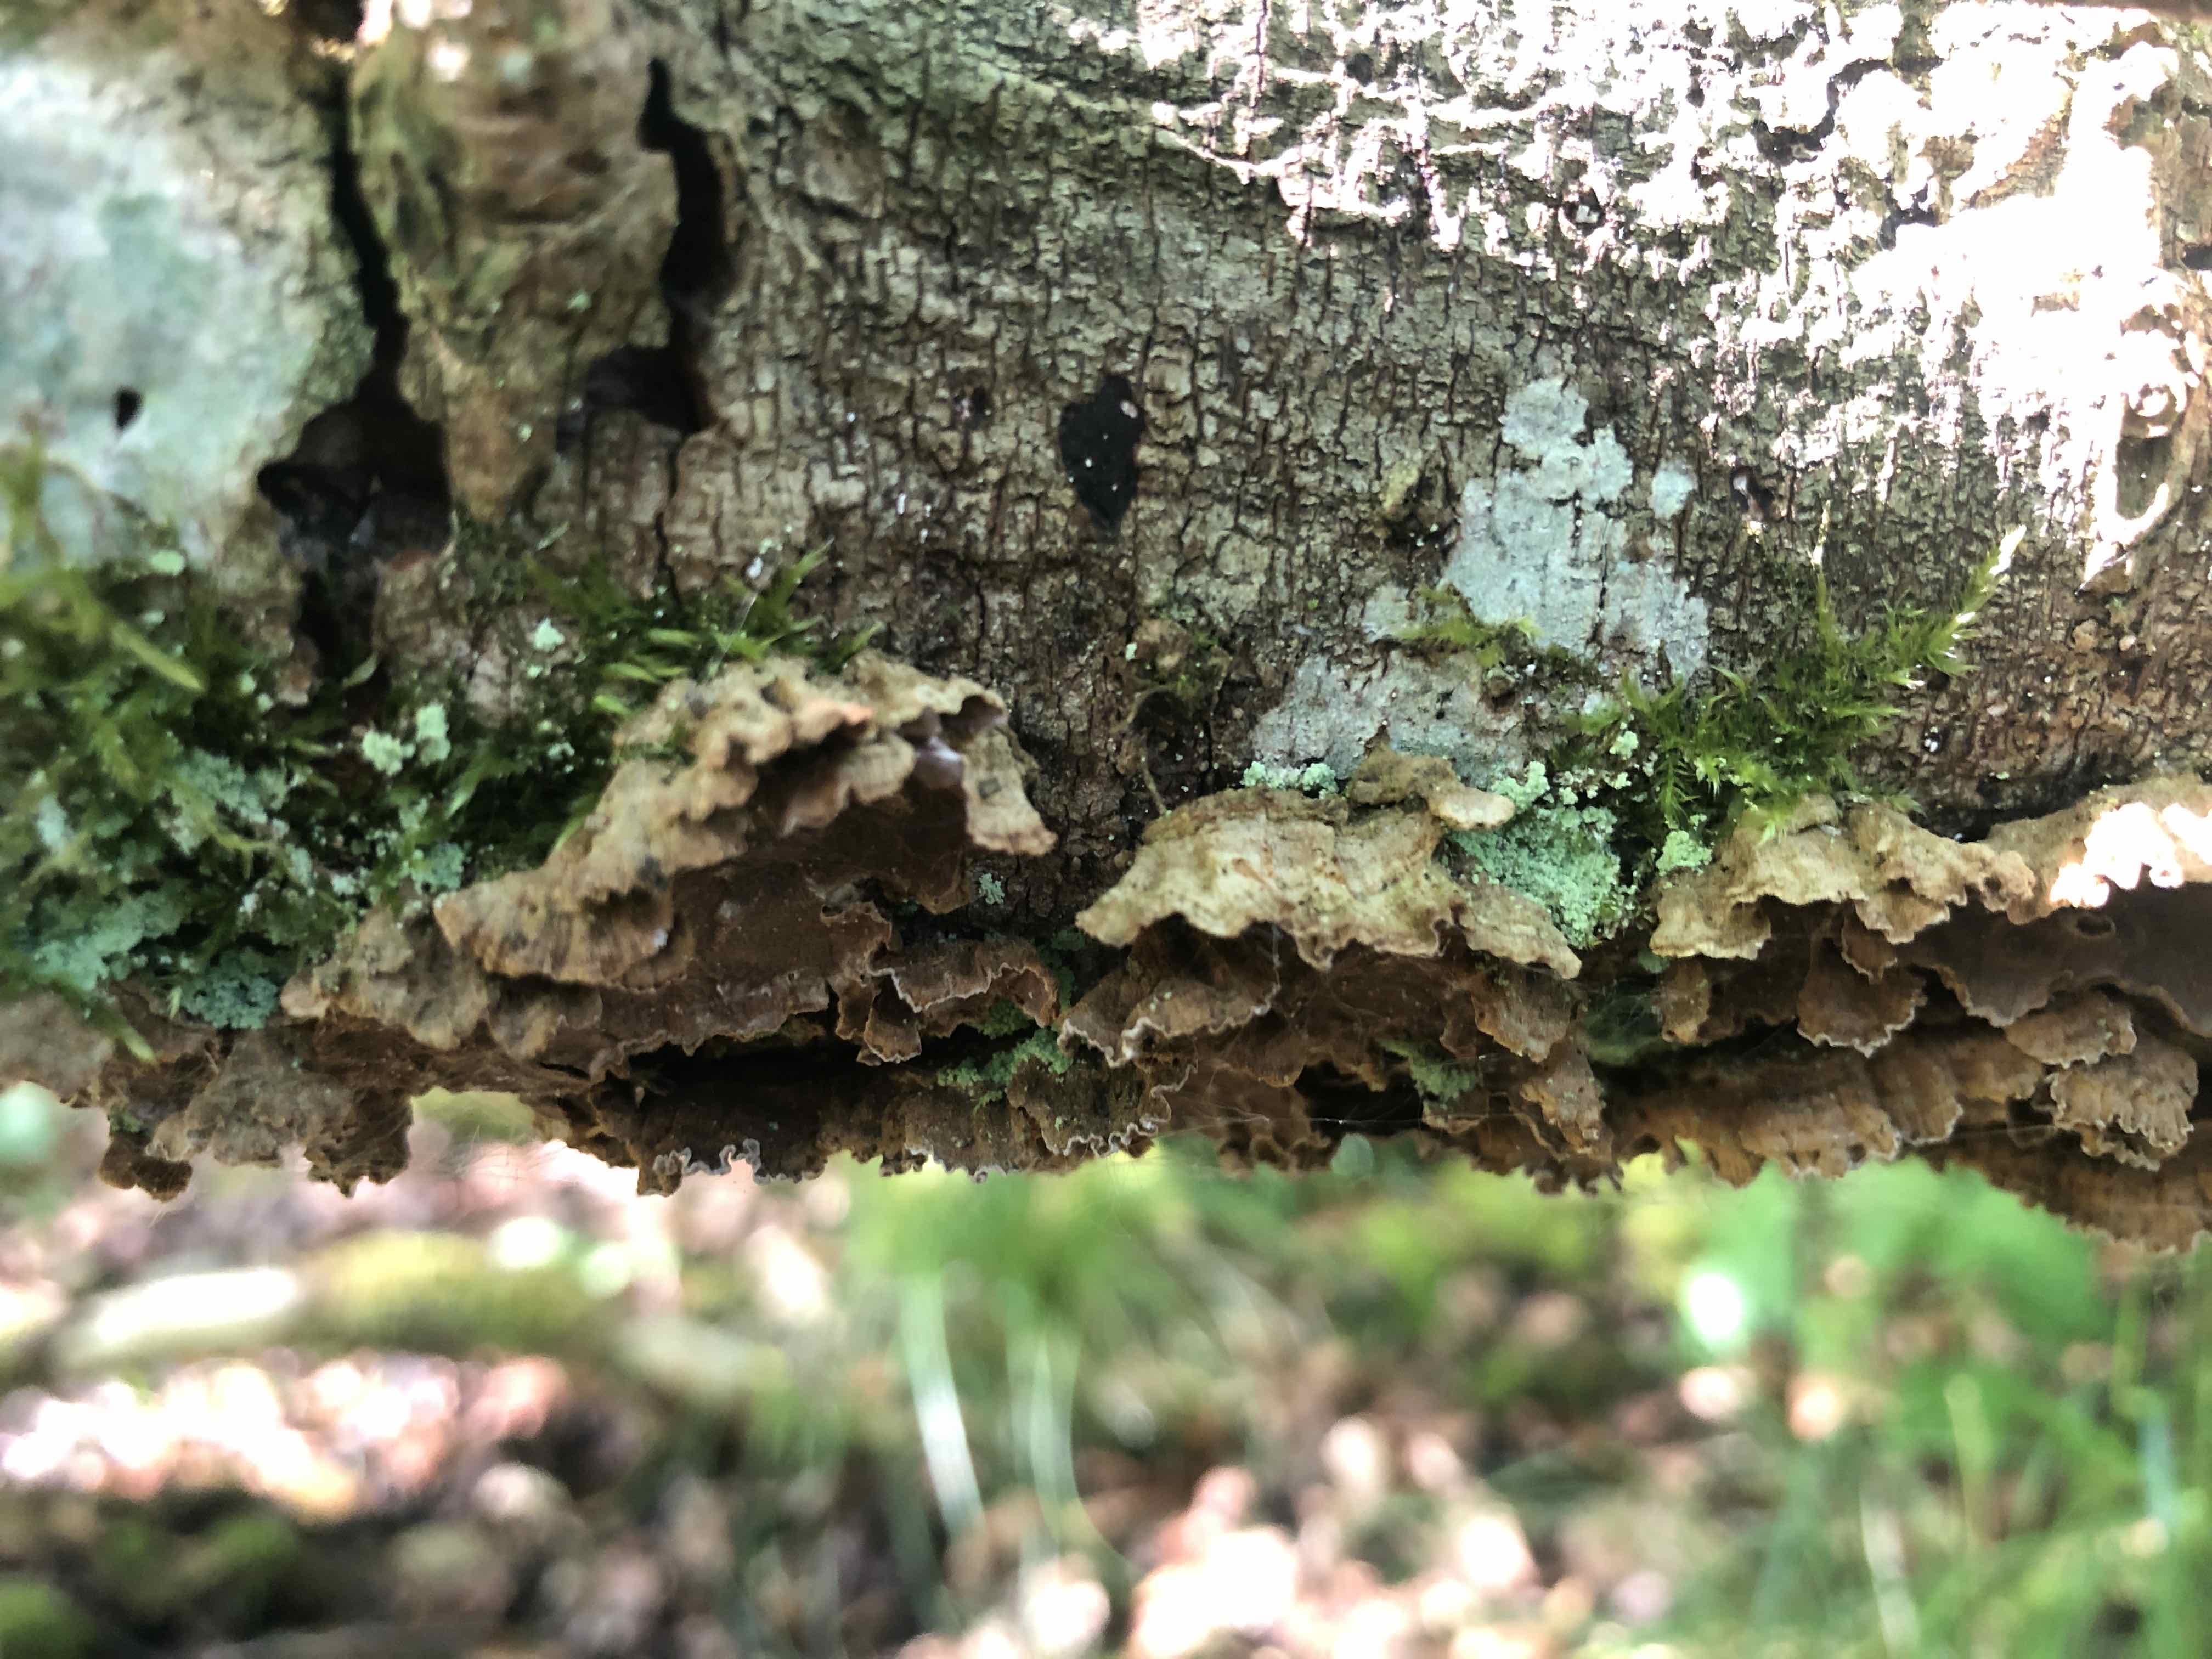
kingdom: Fungi
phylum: Basidiomycota
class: Agaricomycetes
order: Hymenochaetales
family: Hymenochaetaceae
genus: Hydnoporia
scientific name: Hydnoporia tabacina
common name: tobaksbrun ruslædersvamp
